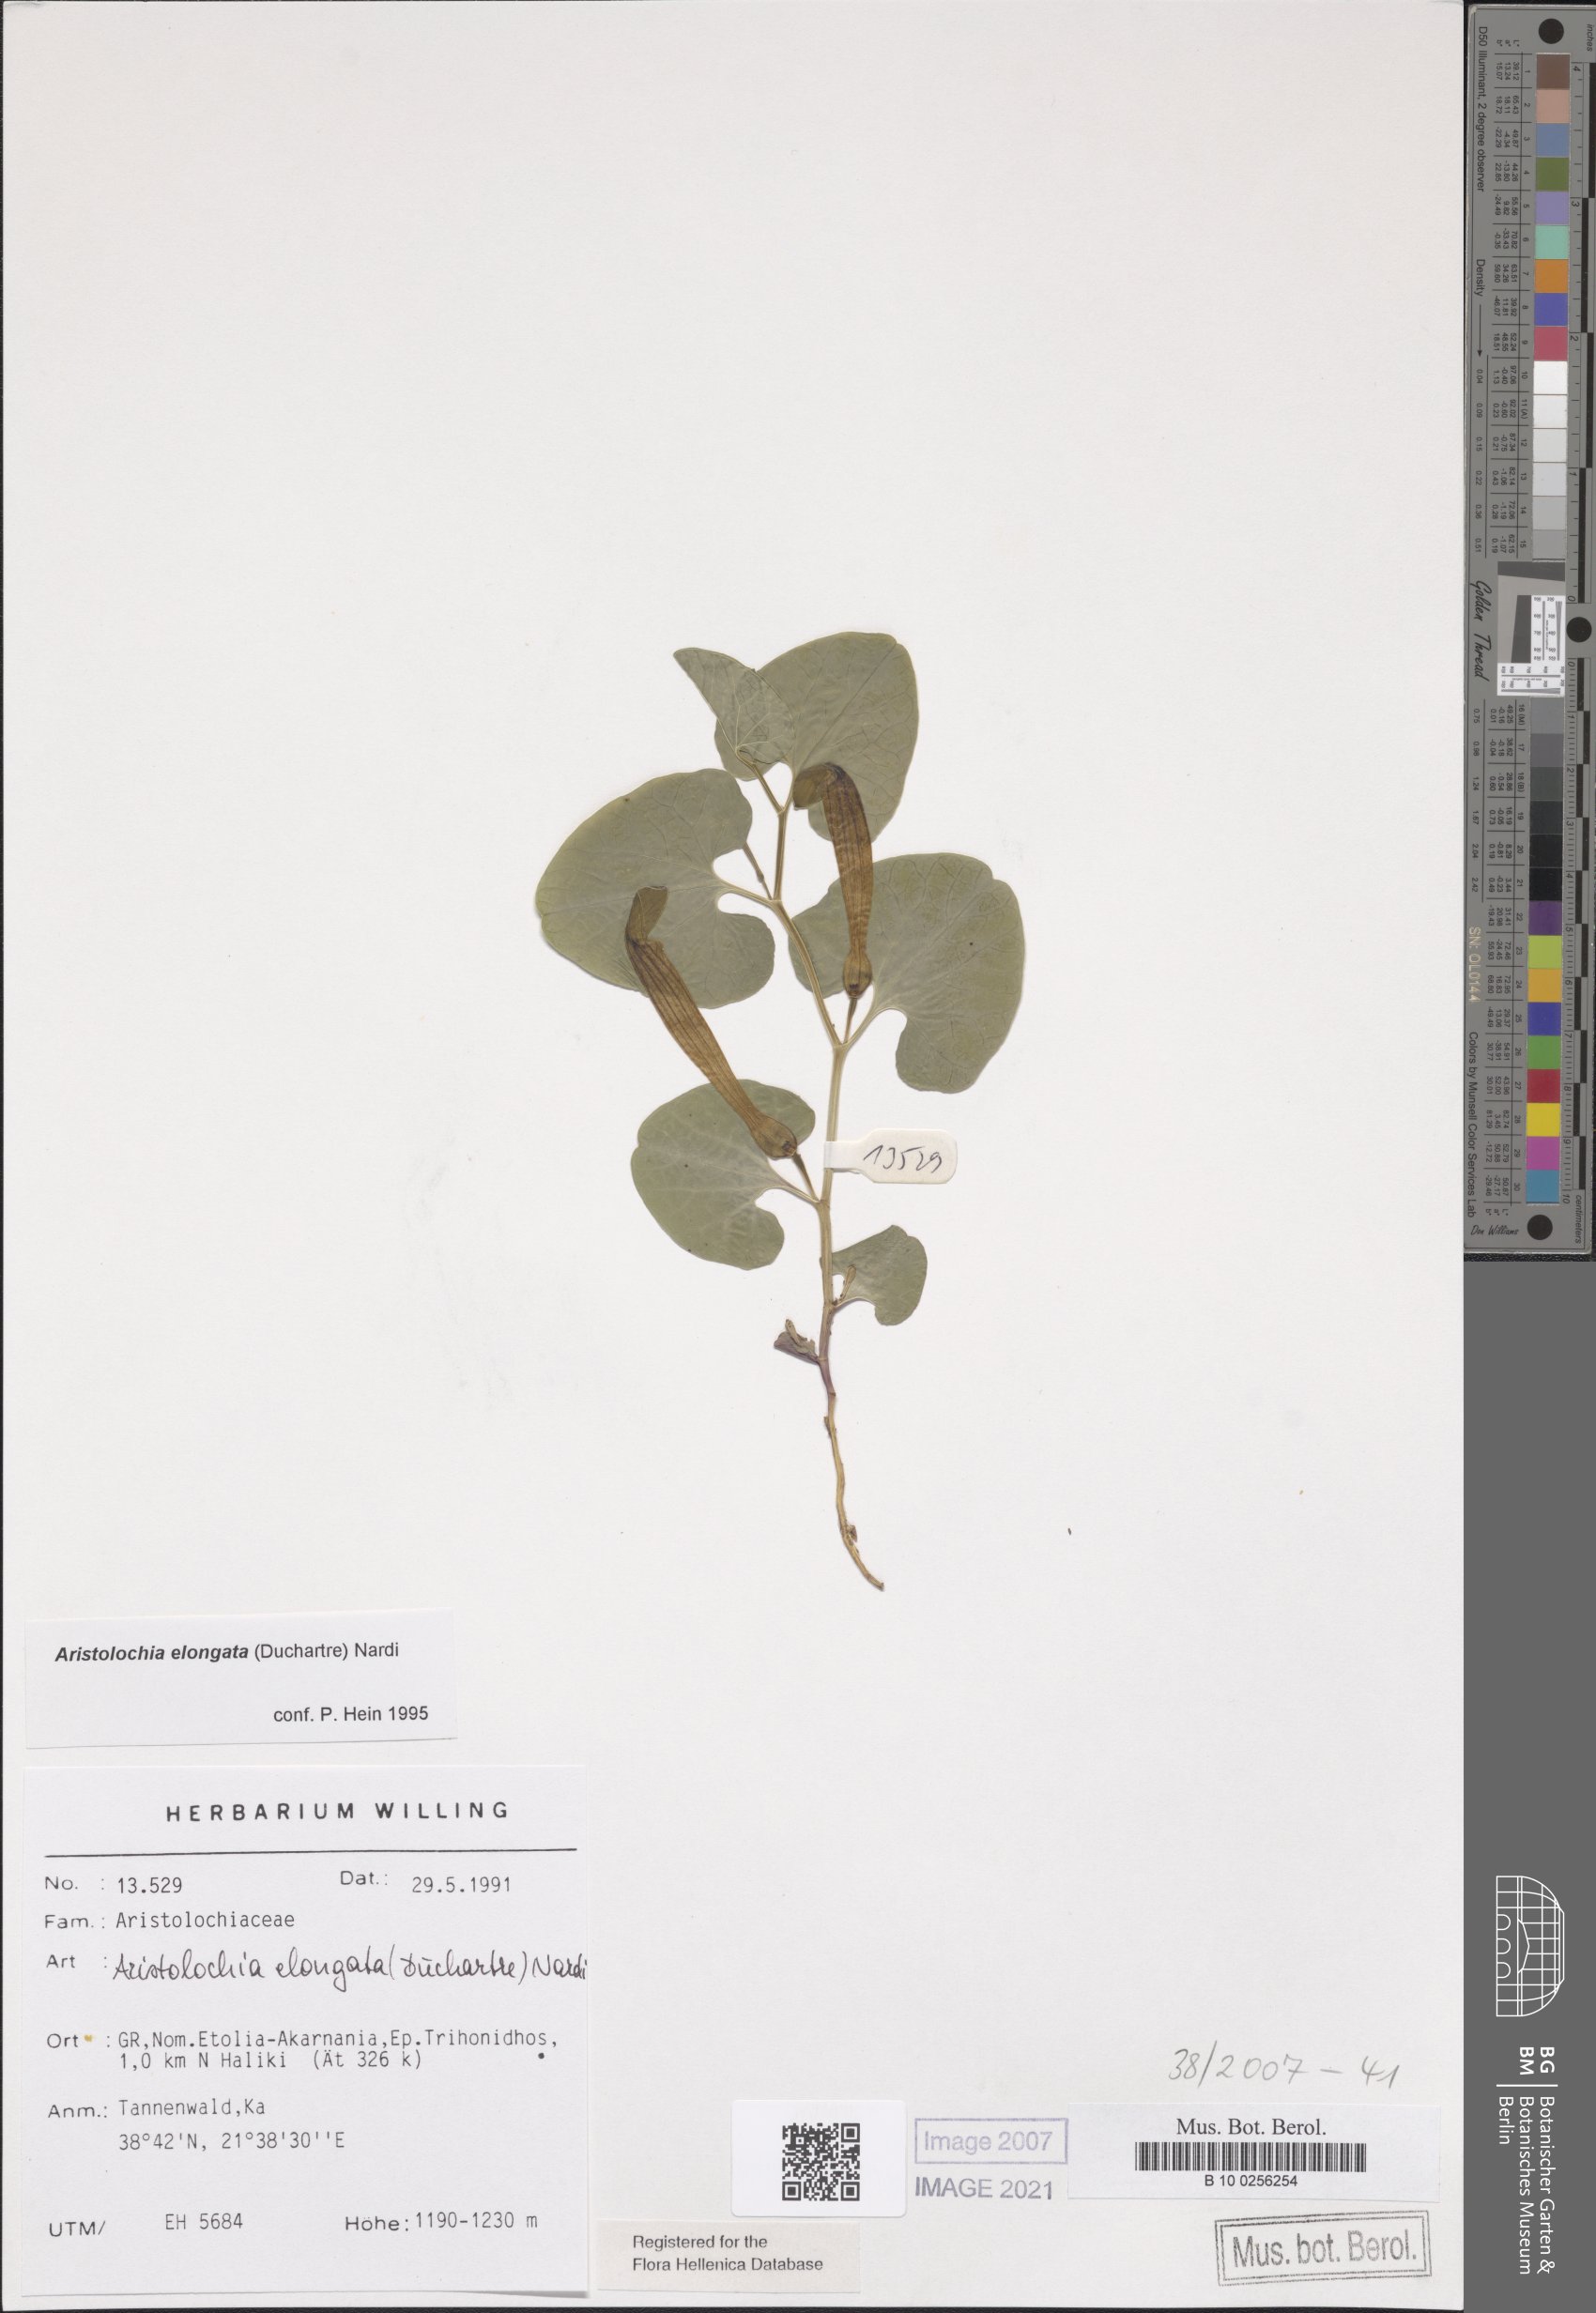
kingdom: Plantae
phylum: Tracheophyta
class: Magnoliopsida
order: Piperales
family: Aristolochiaceae
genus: Aristolochia
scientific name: Aristolochia nardiana
